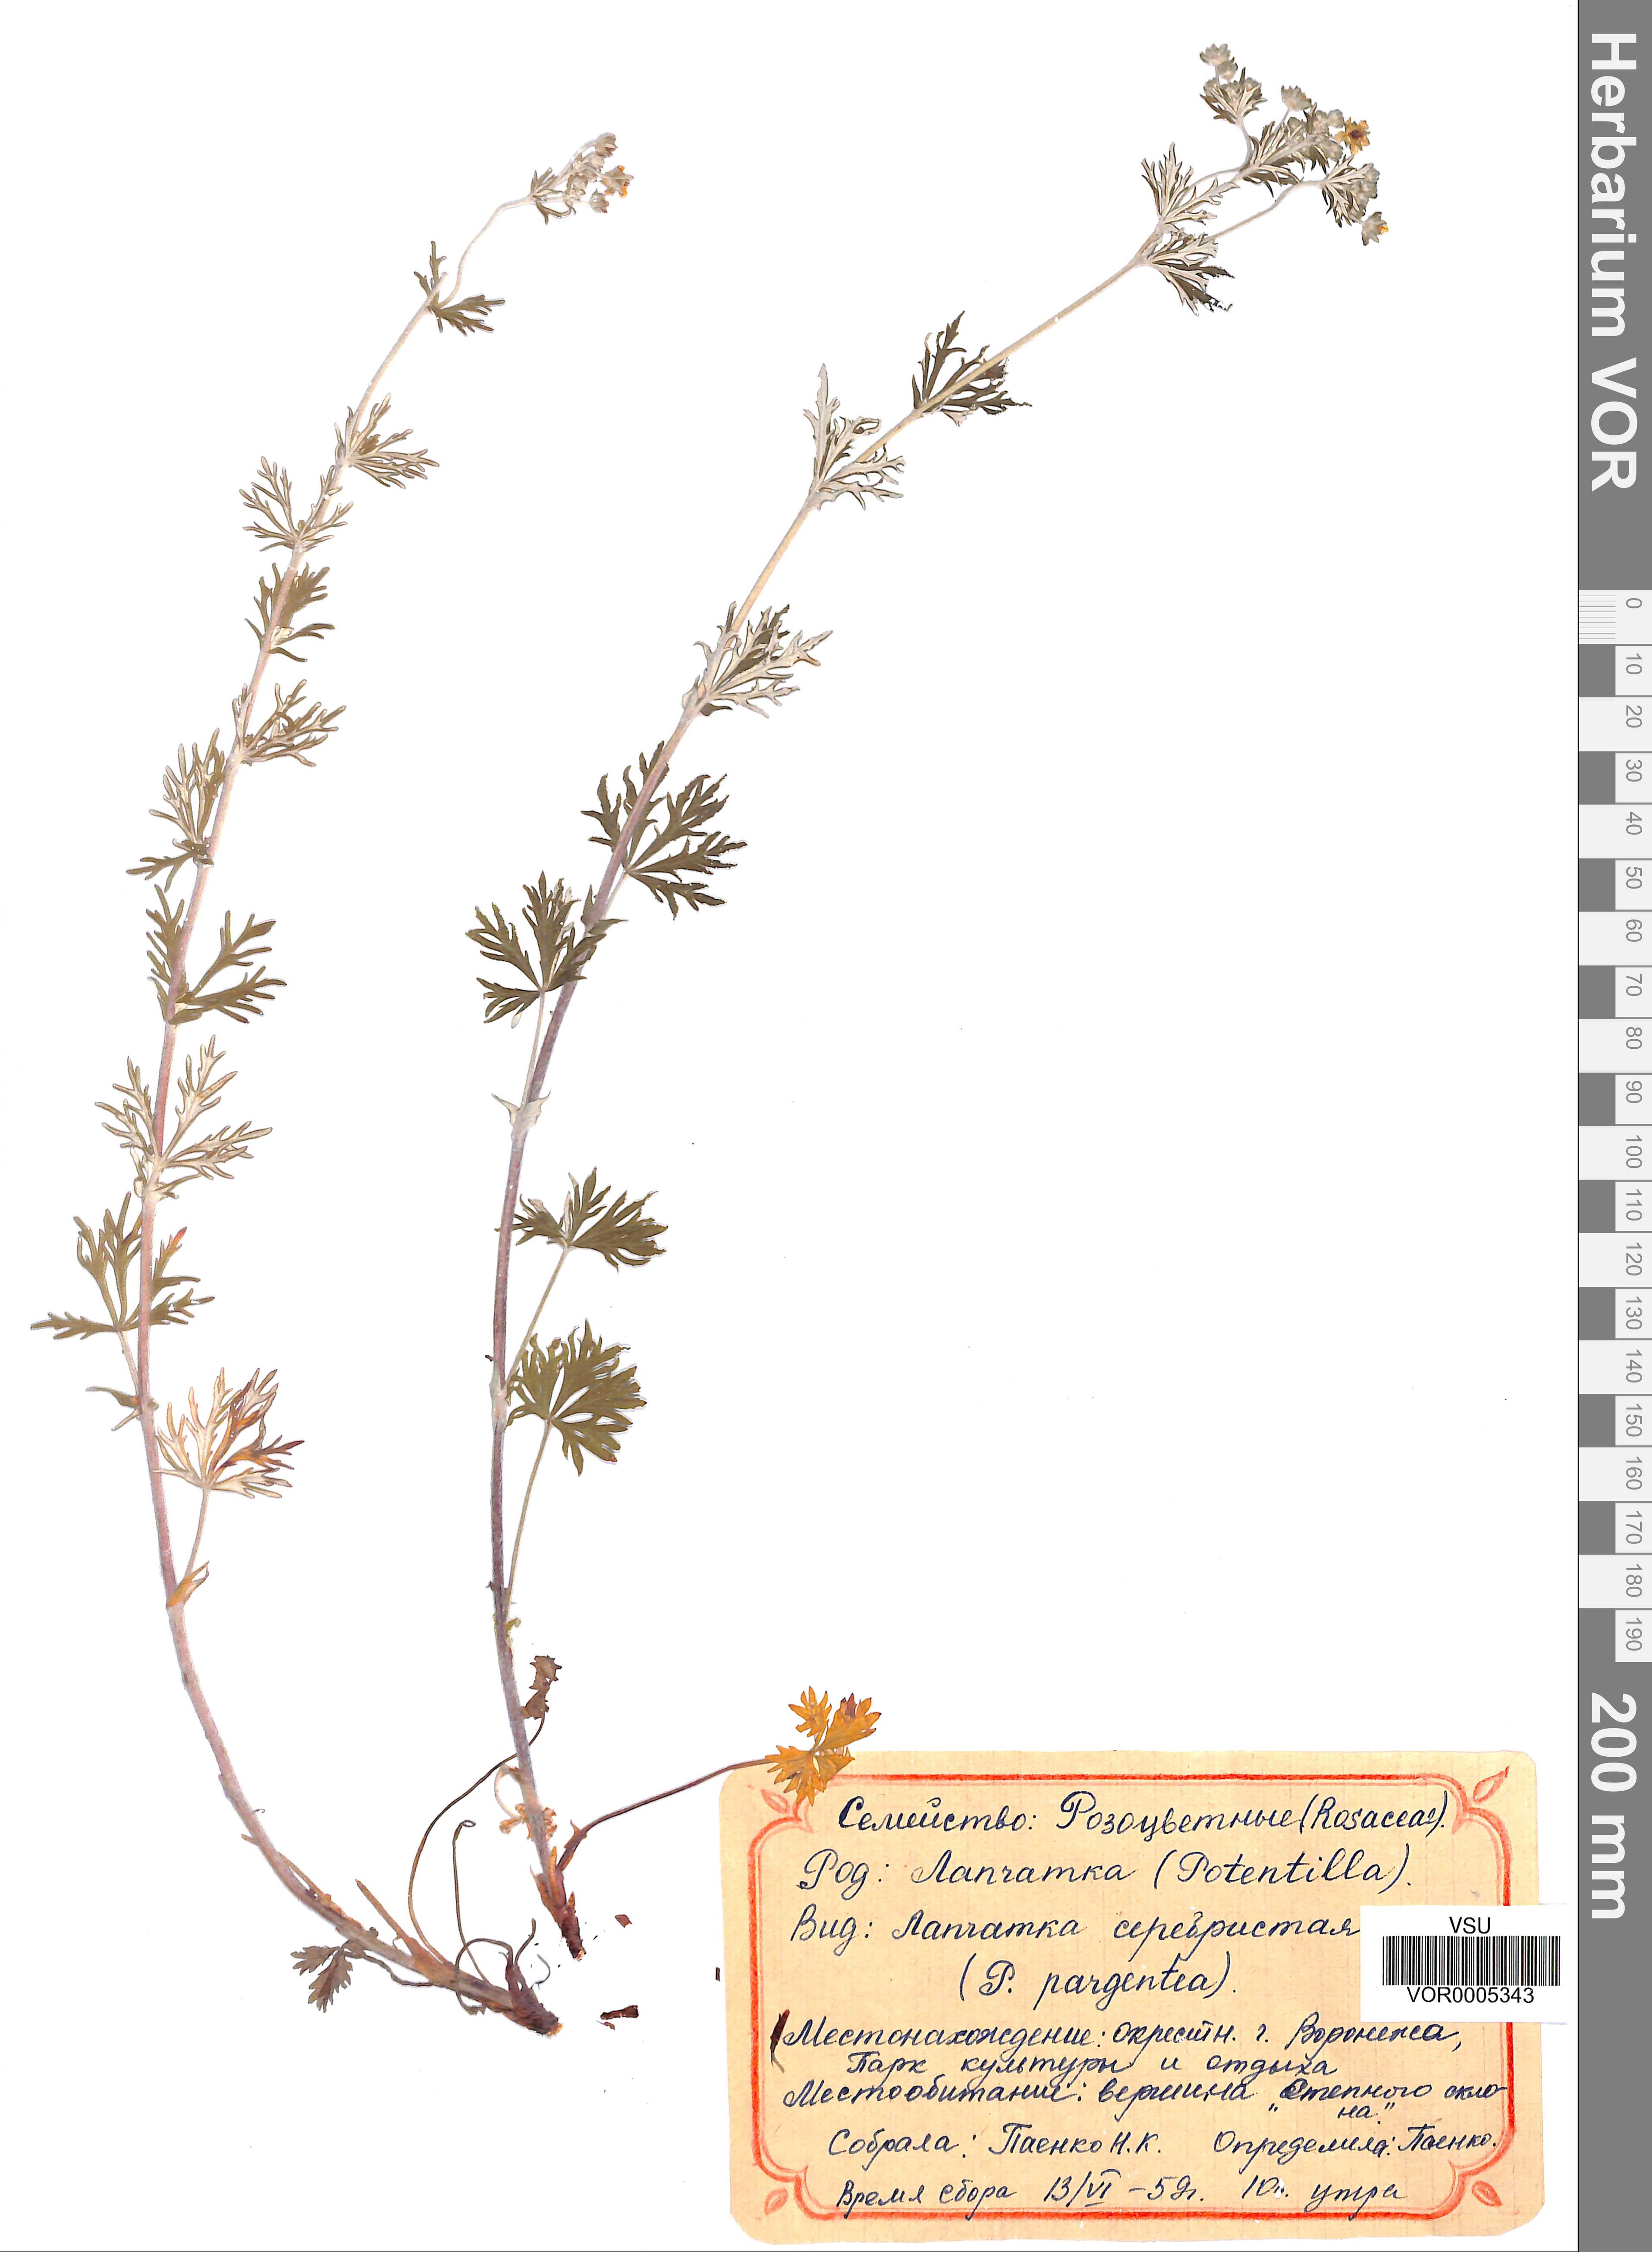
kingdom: Plantae
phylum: Tracheophyta
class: Magnoliopsida
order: Rosales
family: Rosaceae
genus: Potentilla
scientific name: Potentilla argentea
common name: Hoary cinquefoil
